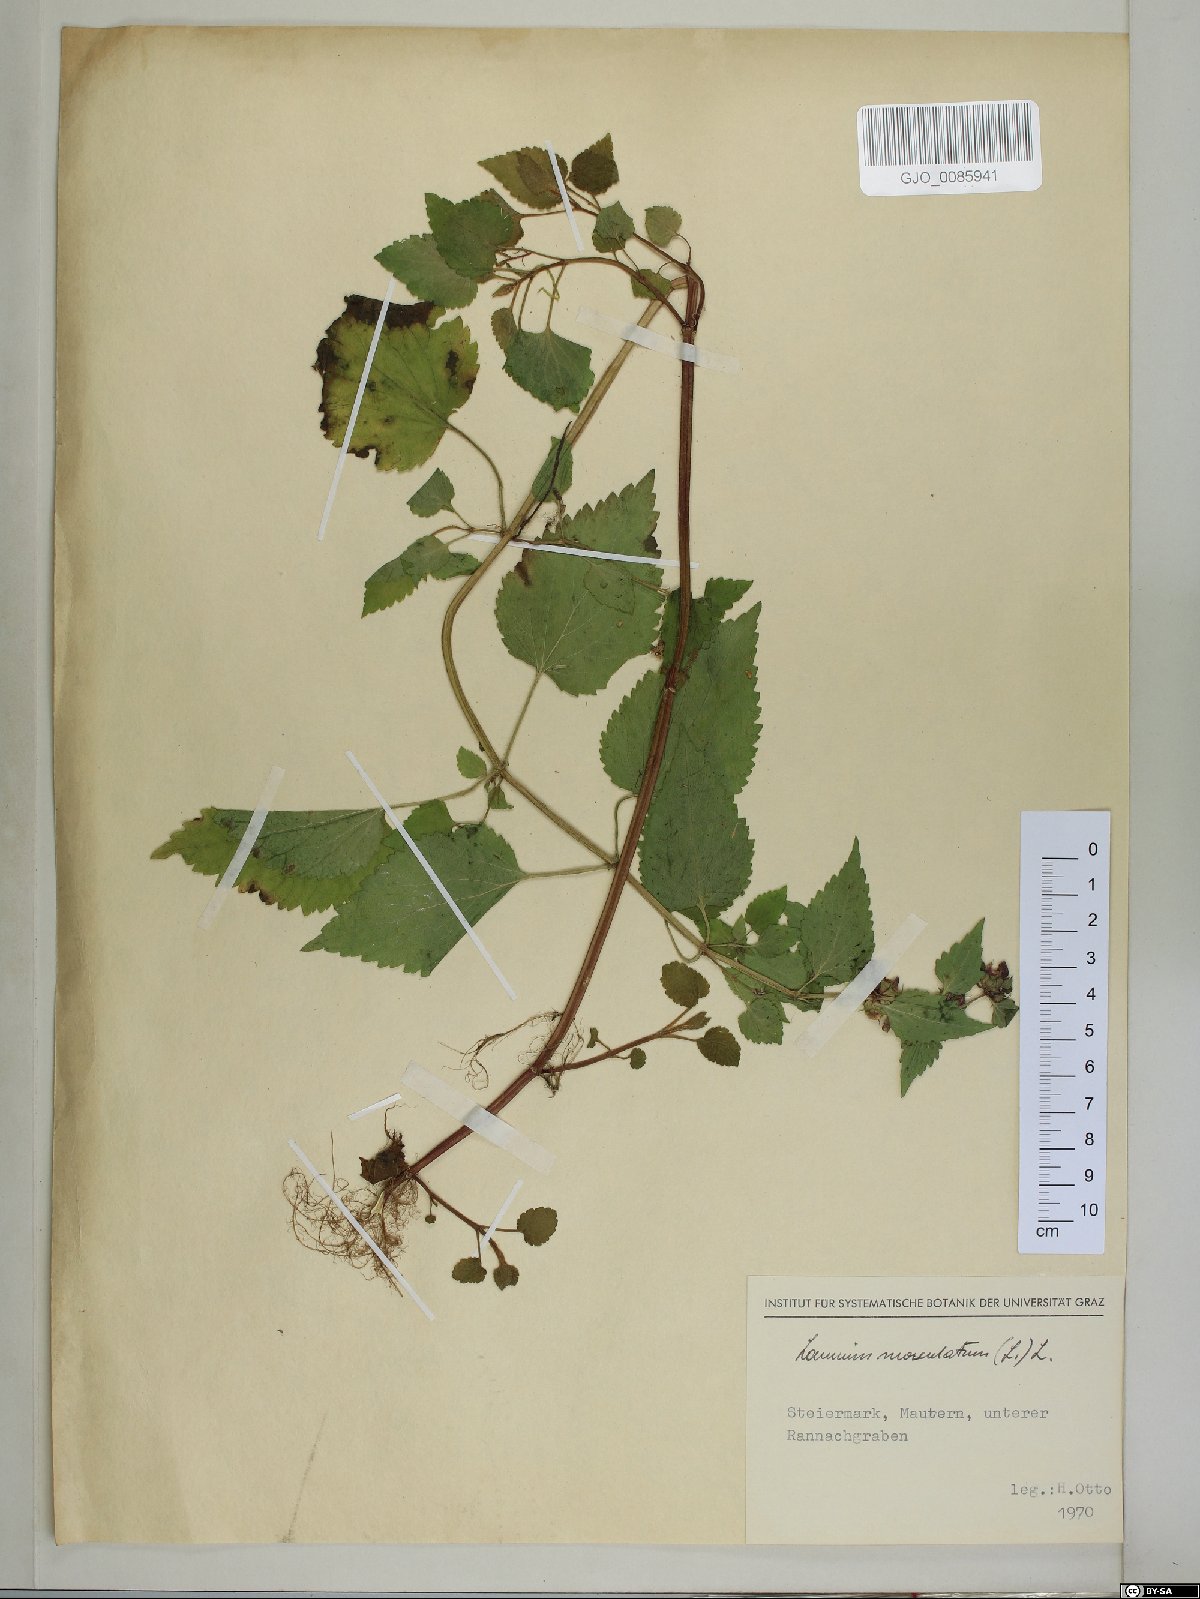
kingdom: Plantae
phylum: Tracheophyta
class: Magnoliopsida
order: Lamiales
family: Lamiaceae
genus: Lamium
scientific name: Lamium maculatum
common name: Spotted dead-nettle
